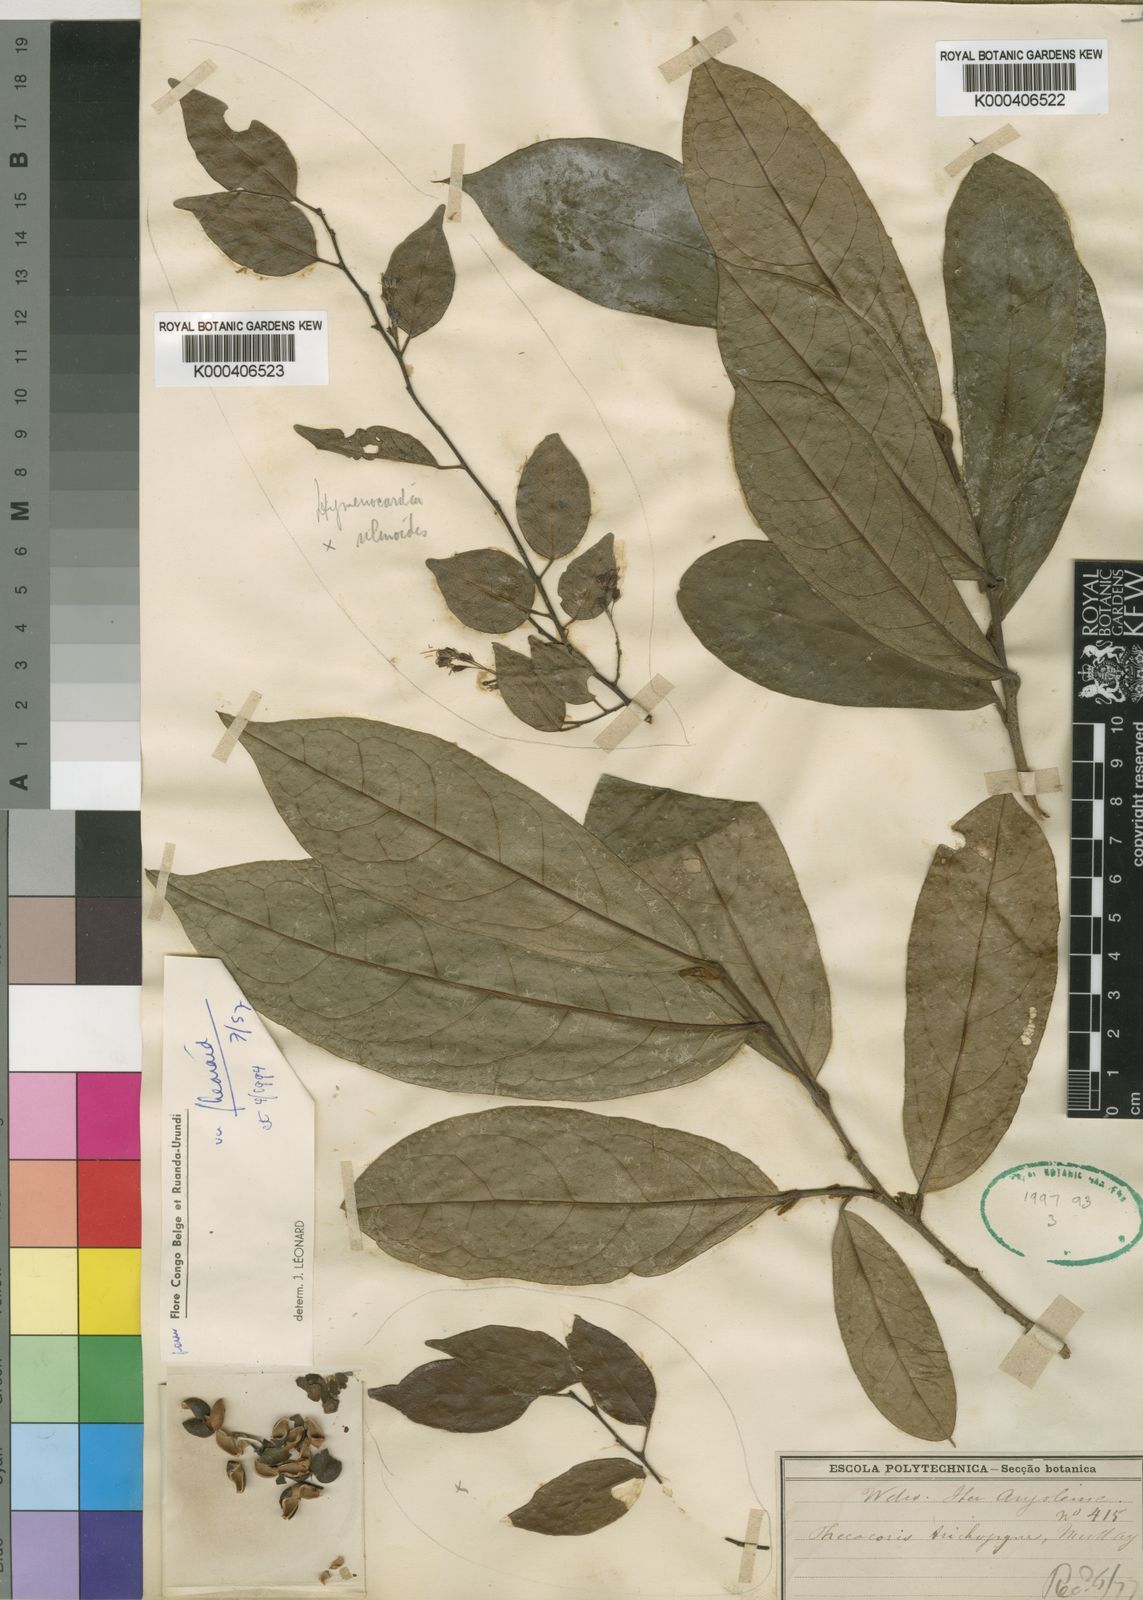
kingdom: Plantae
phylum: Tracheophyta
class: Magnoliopsida
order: Malpighiales
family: Phyllanthaceae
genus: Thecacoris
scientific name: Thecacoris
